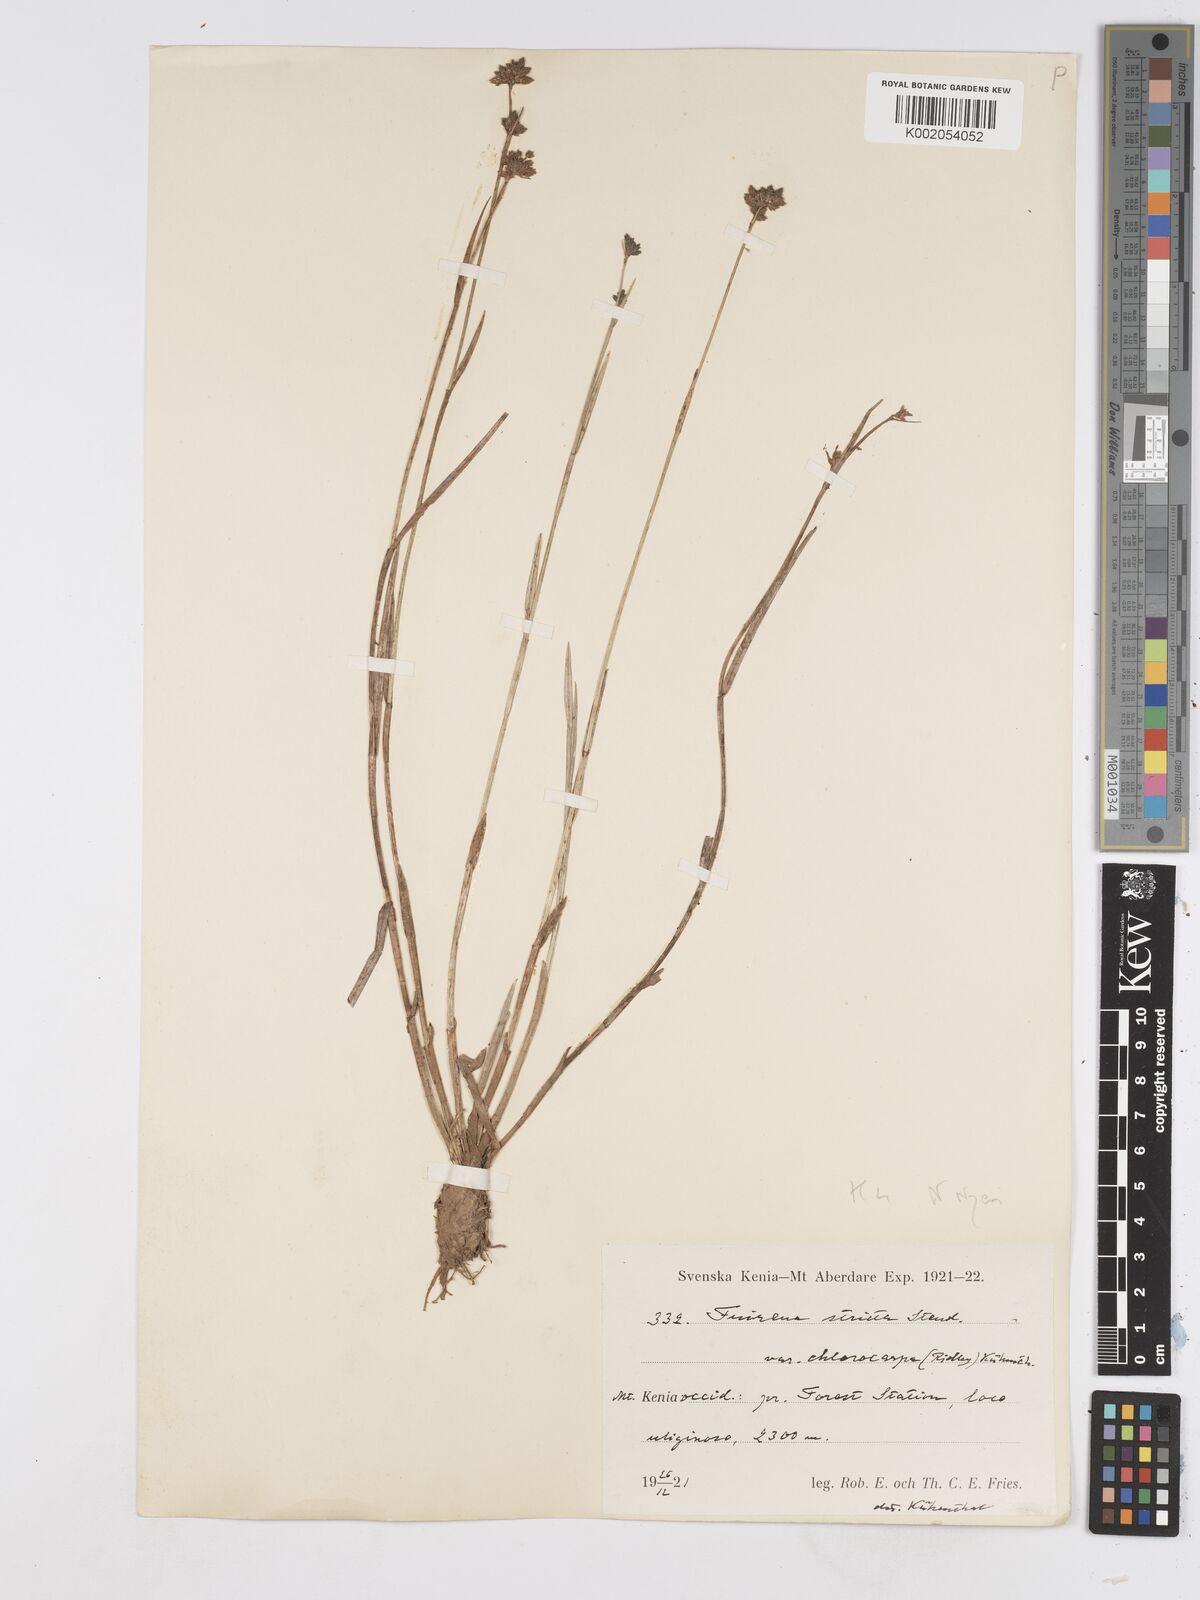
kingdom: Plantae
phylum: Tracheophyta
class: Liliopsida
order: Poales
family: Cyperaceae
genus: Fuirena
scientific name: Fuirena stricta
